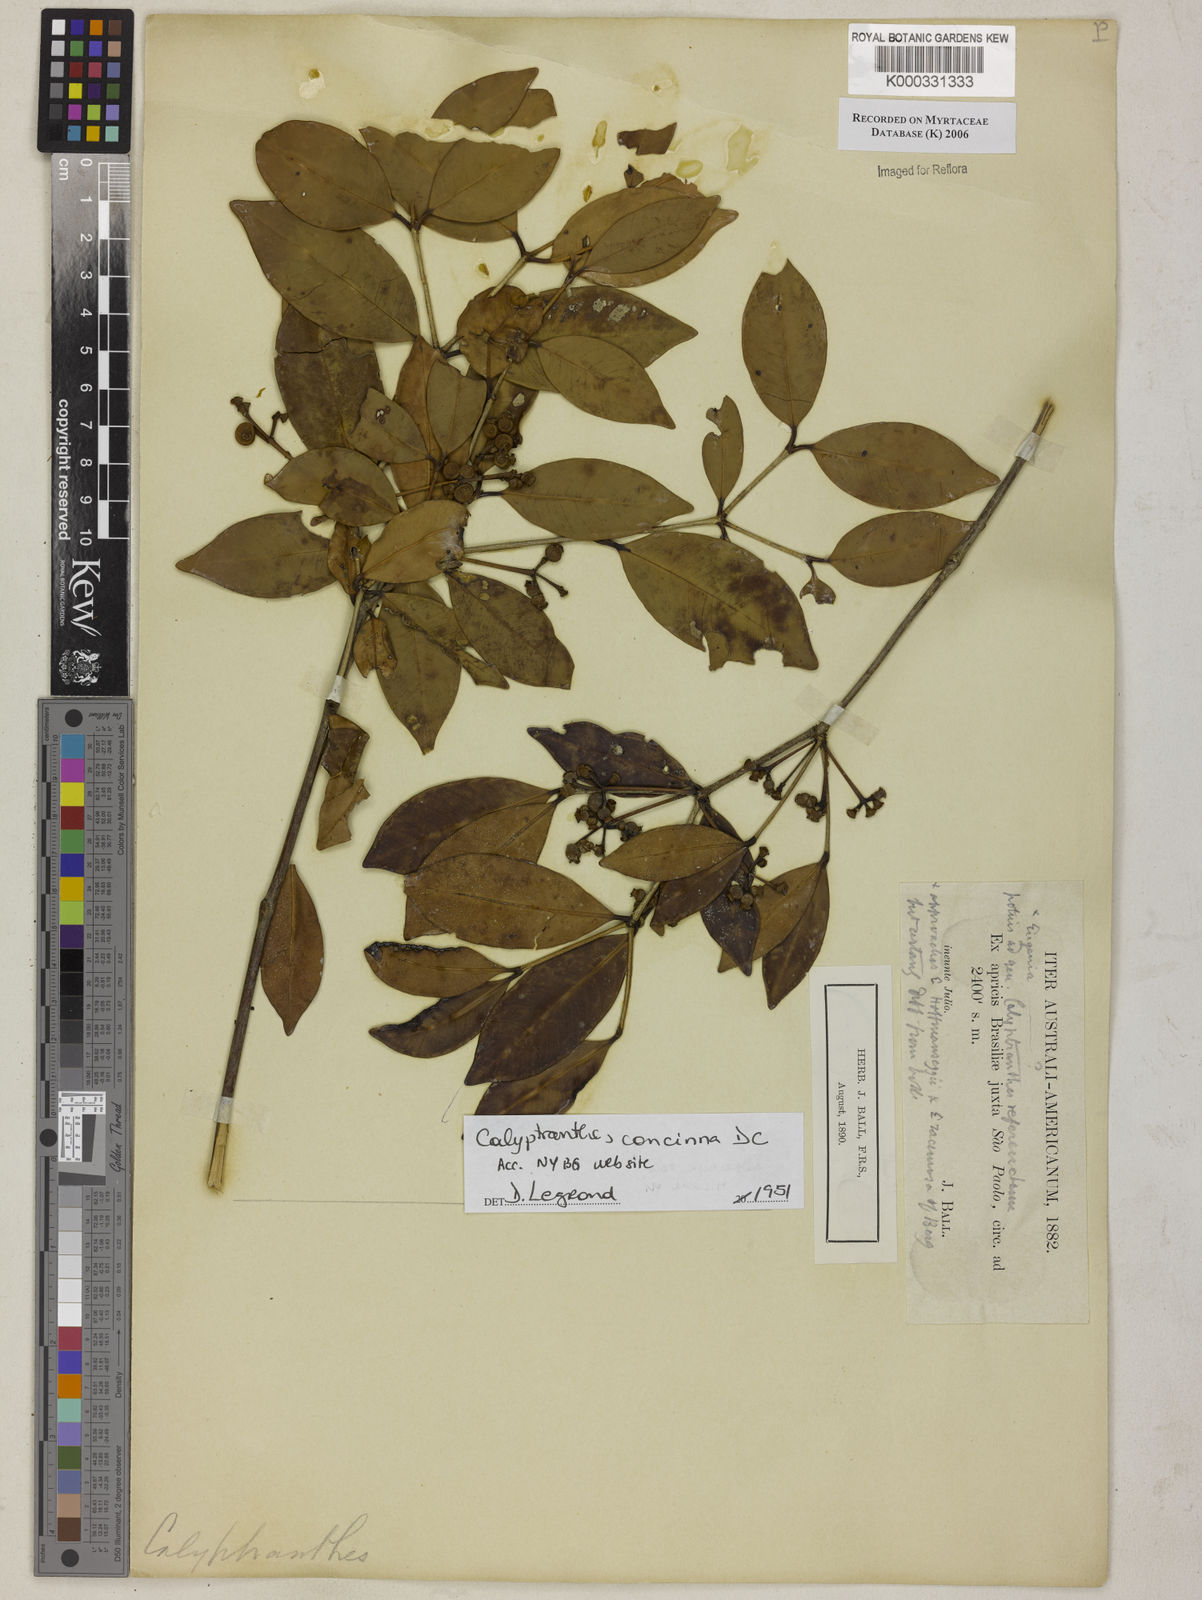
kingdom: Plantae
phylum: Tracheophyta
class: Magnoliopsida
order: Myrtales
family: Myrtaceae
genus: Calyptranthes
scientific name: Calyptranthes
